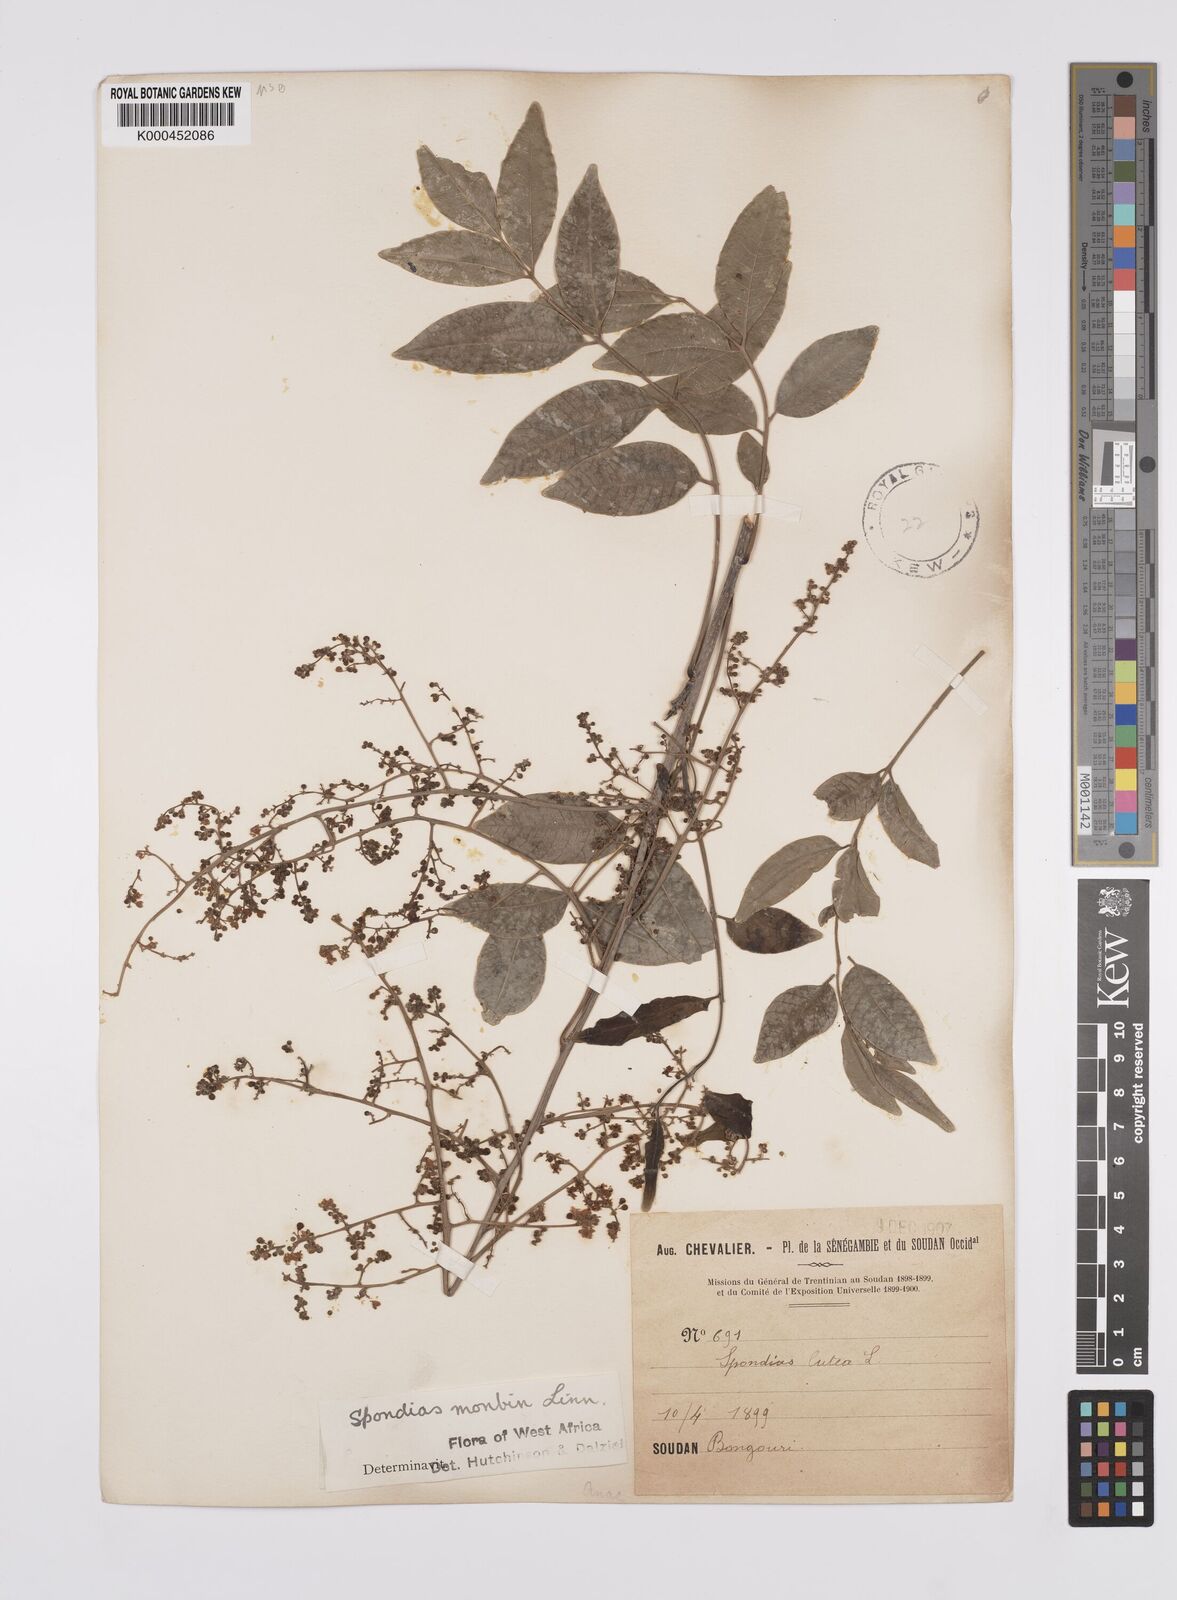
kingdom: Plantae
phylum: Tracheophyta
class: Magnoliopsida
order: Sapindales
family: Anacardiaceae
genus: Spondias
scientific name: Spondias mombin
